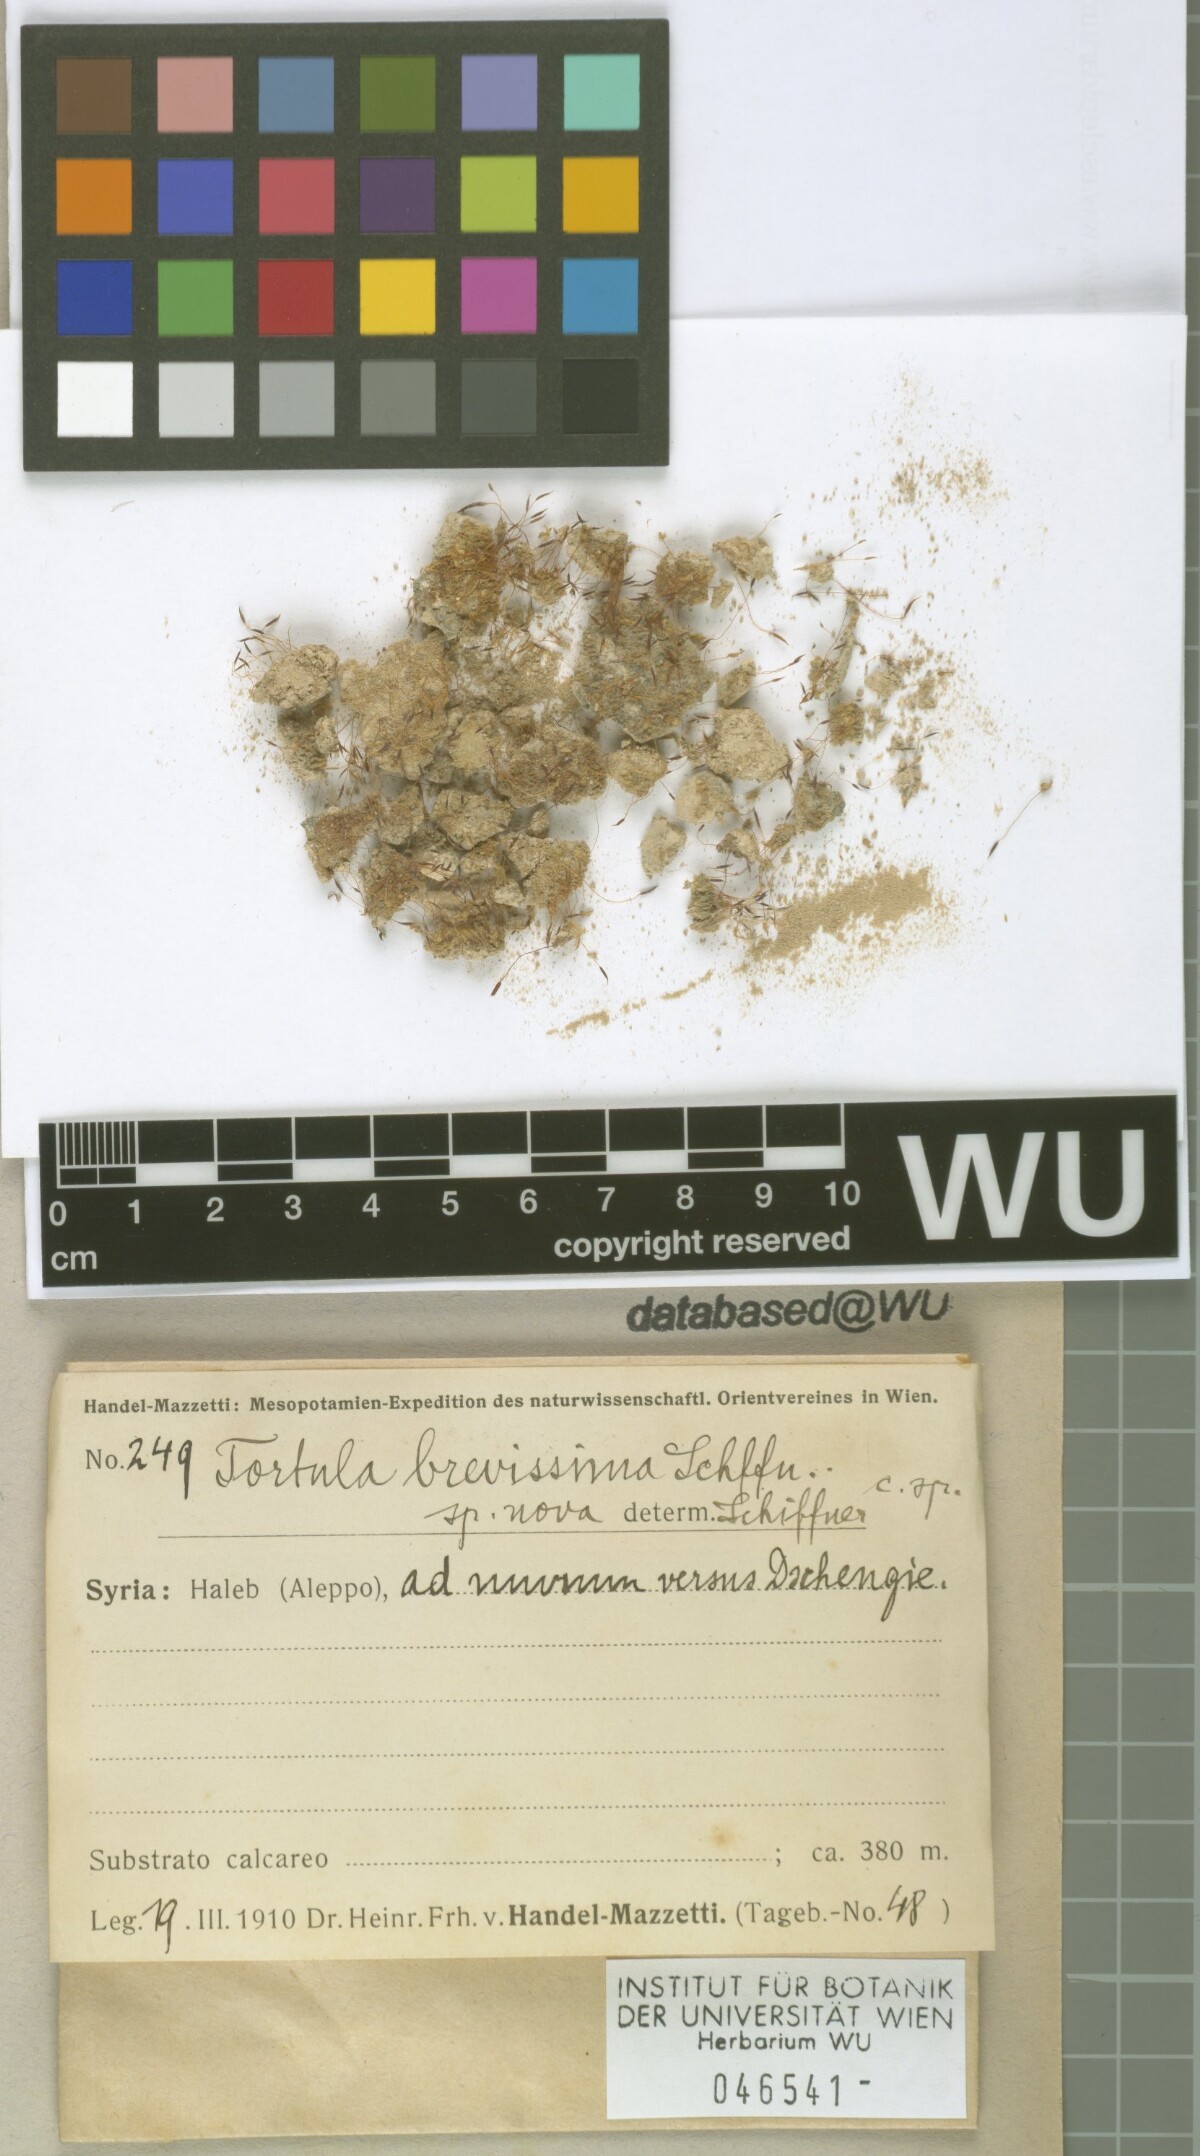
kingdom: Plantae
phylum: Bryophyta
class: Bryopsida
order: Pottiales
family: Pottiaceae
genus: Tortula
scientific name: Tortula brevissima
